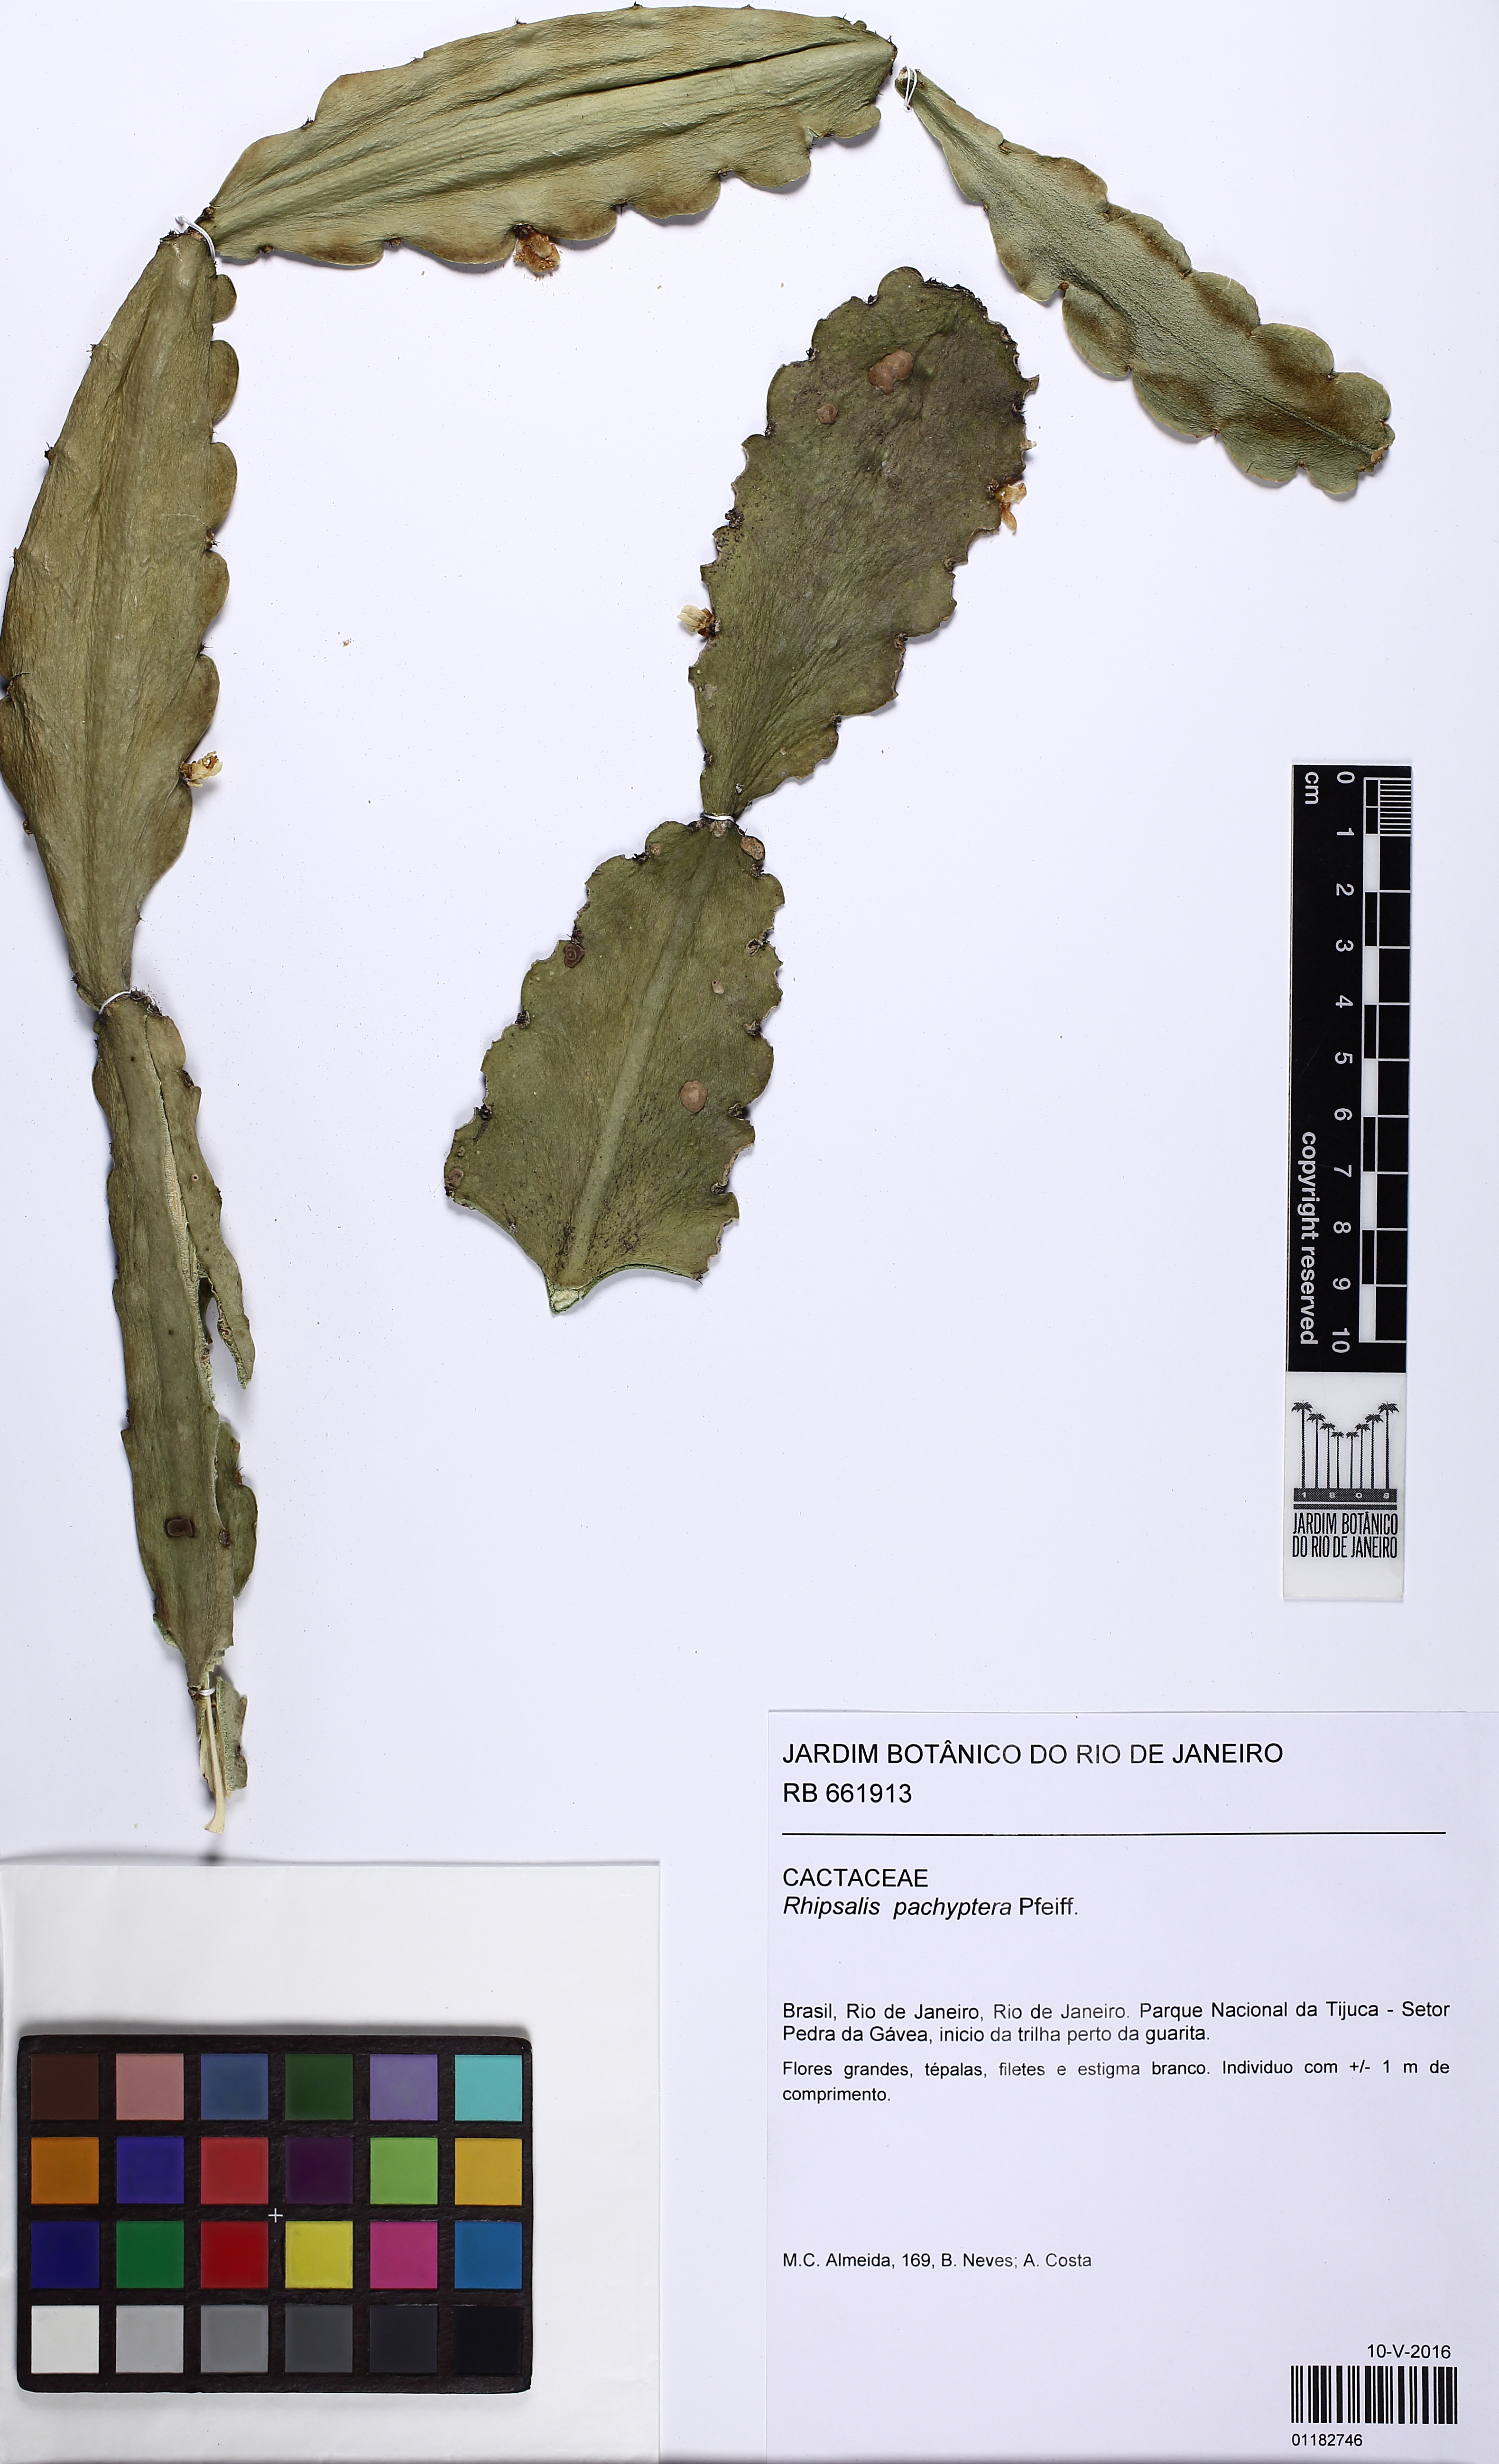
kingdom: Plantae
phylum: Tracheophyta
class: Magnoliopsida
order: Caryophyllales
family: Cactaceae
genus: Rhipsalis
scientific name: Rhipsalis pachyptera
